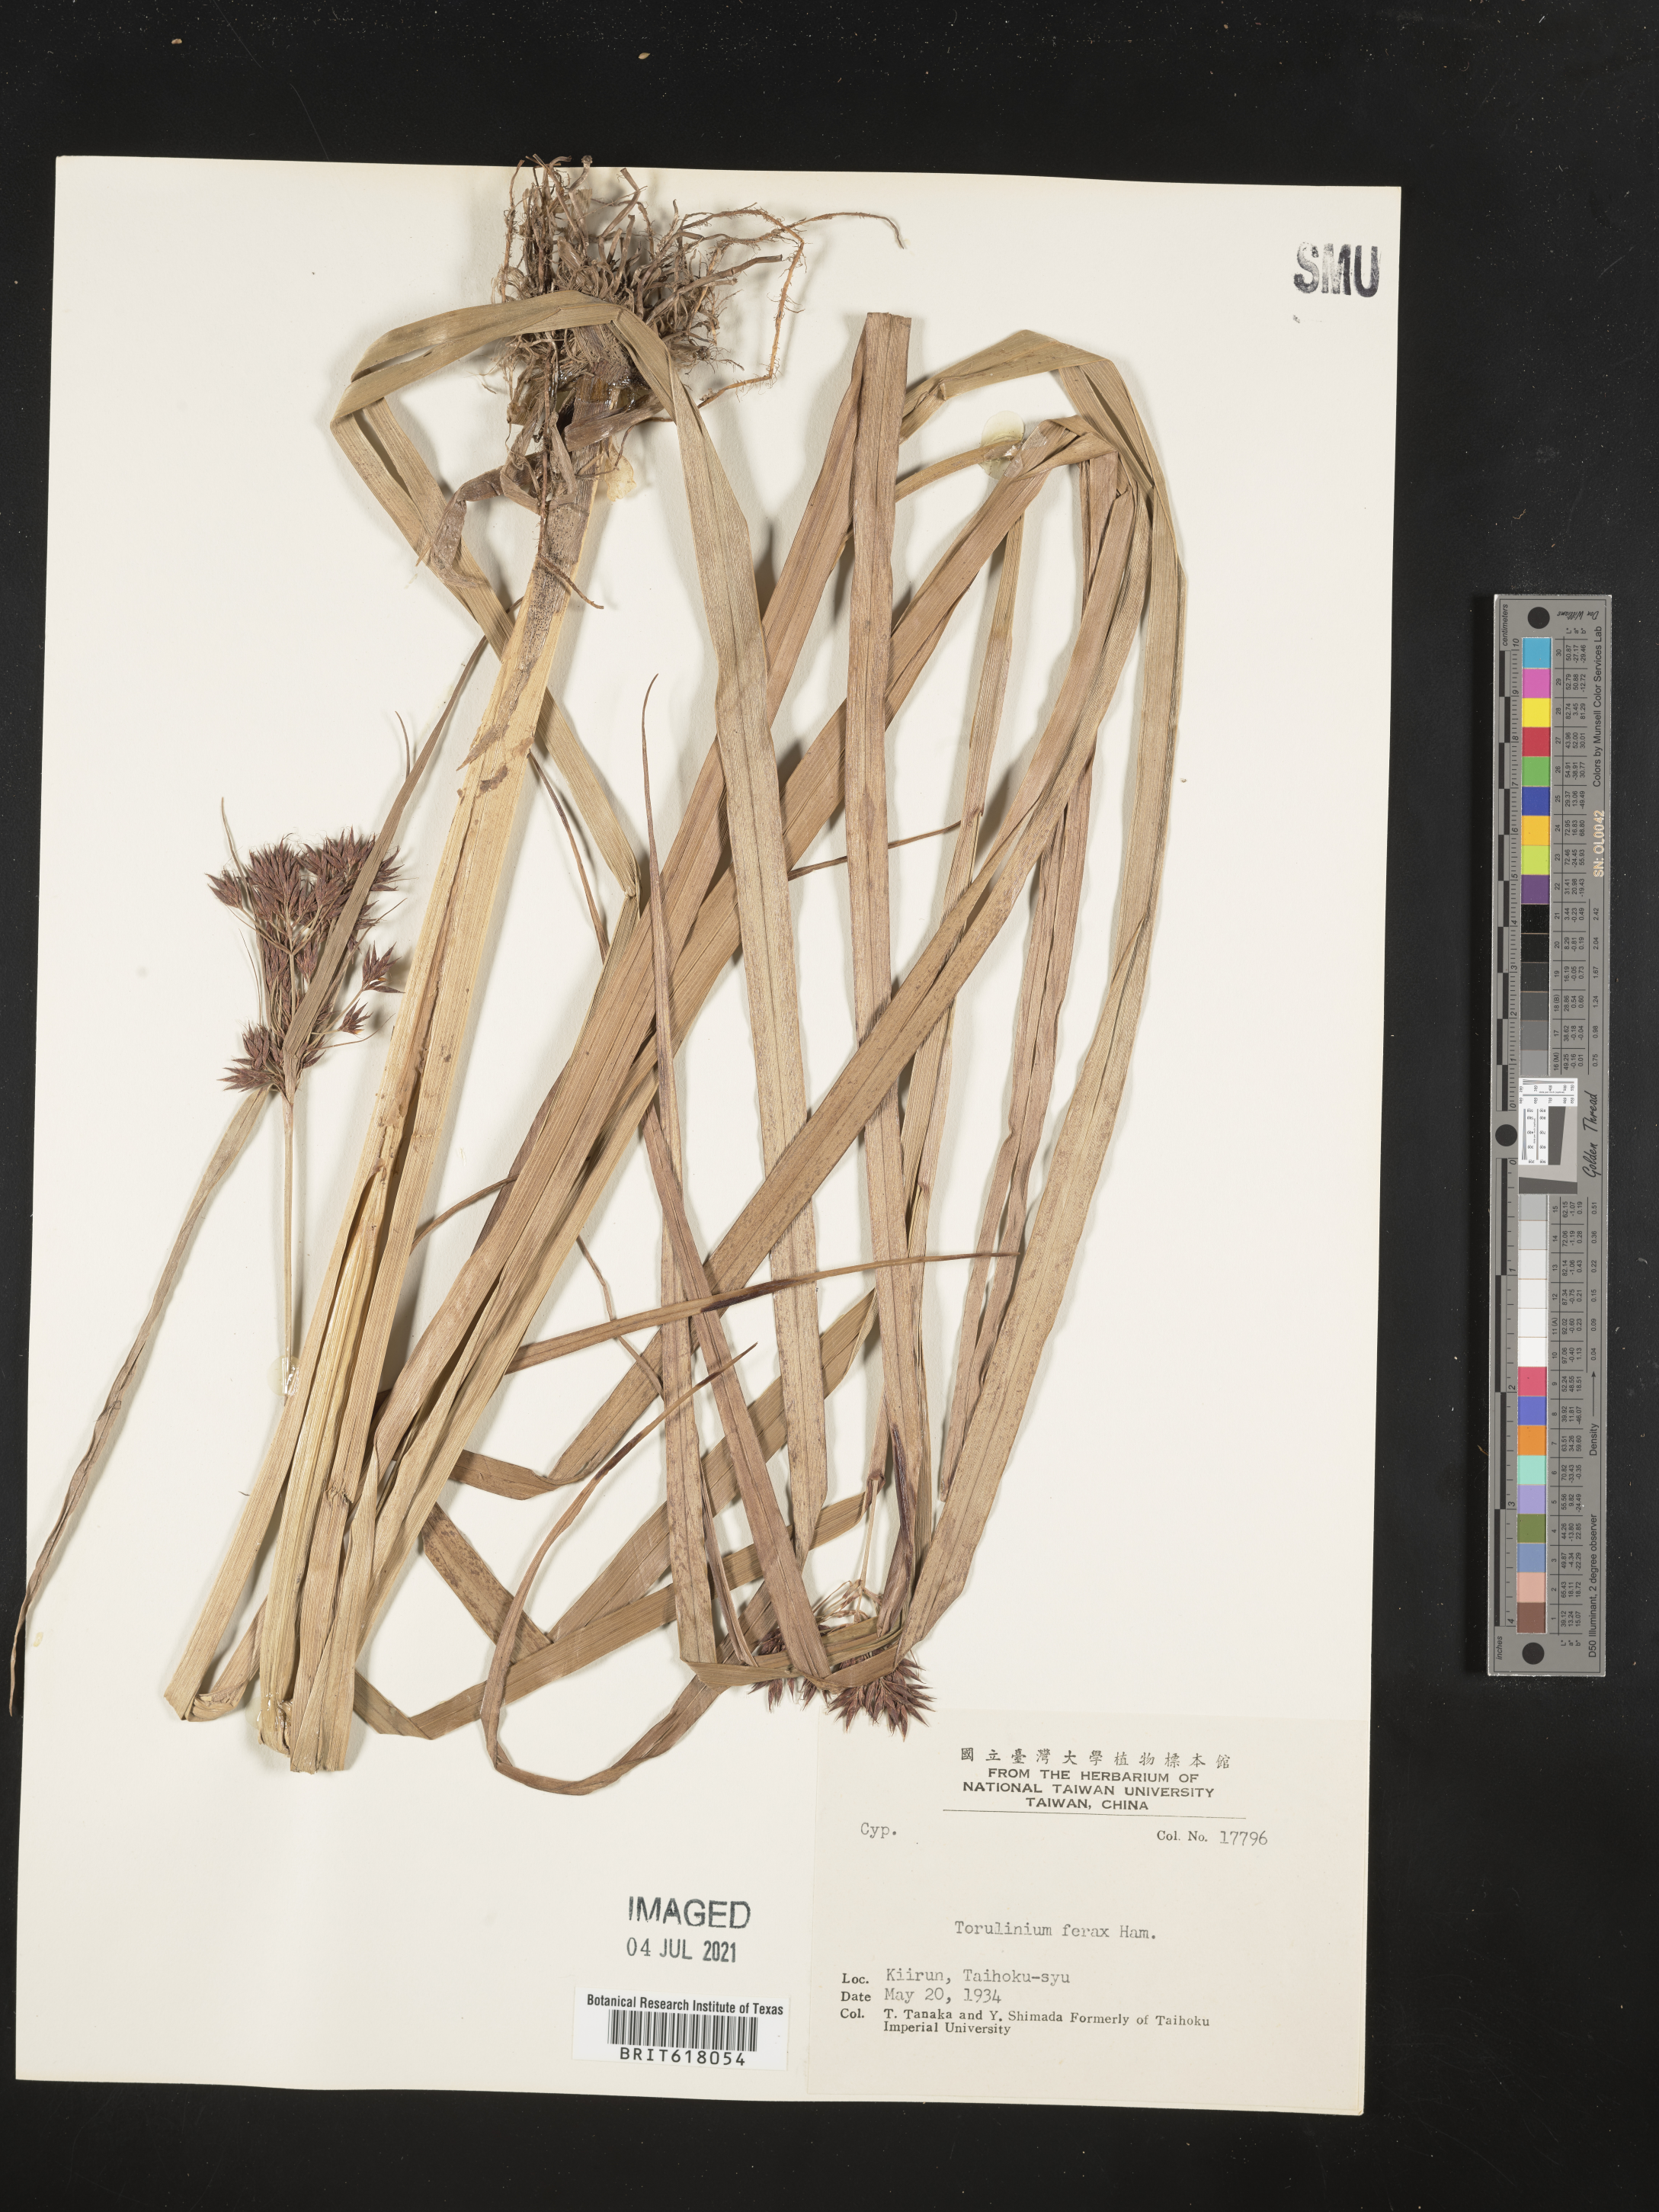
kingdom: Plantae
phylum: Tracheophyta
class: Liliopsida
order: Poales
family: Cyperaceae
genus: Cyperus
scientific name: Cyperus ferax
